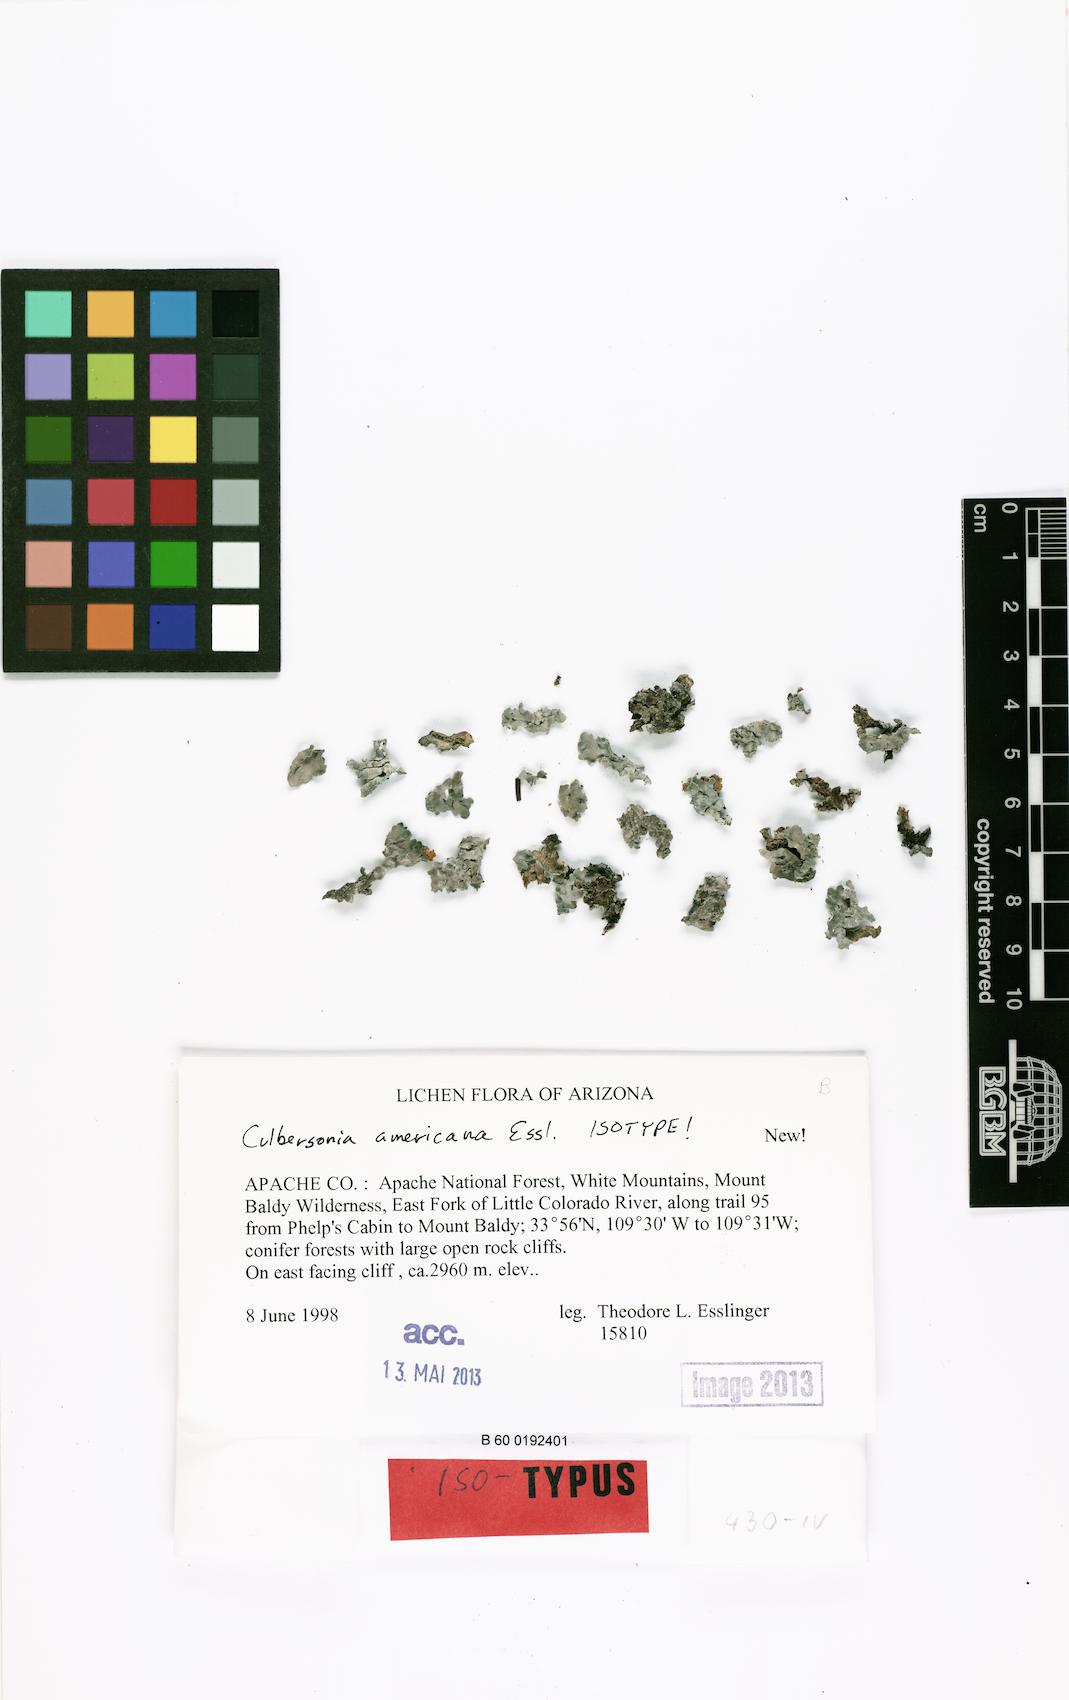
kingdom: Fungi
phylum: Ascomycota
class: Lecanoromycetes
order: Caliciales
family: Physciaceae
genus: Culbersonia
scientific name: Culbersonia americana
